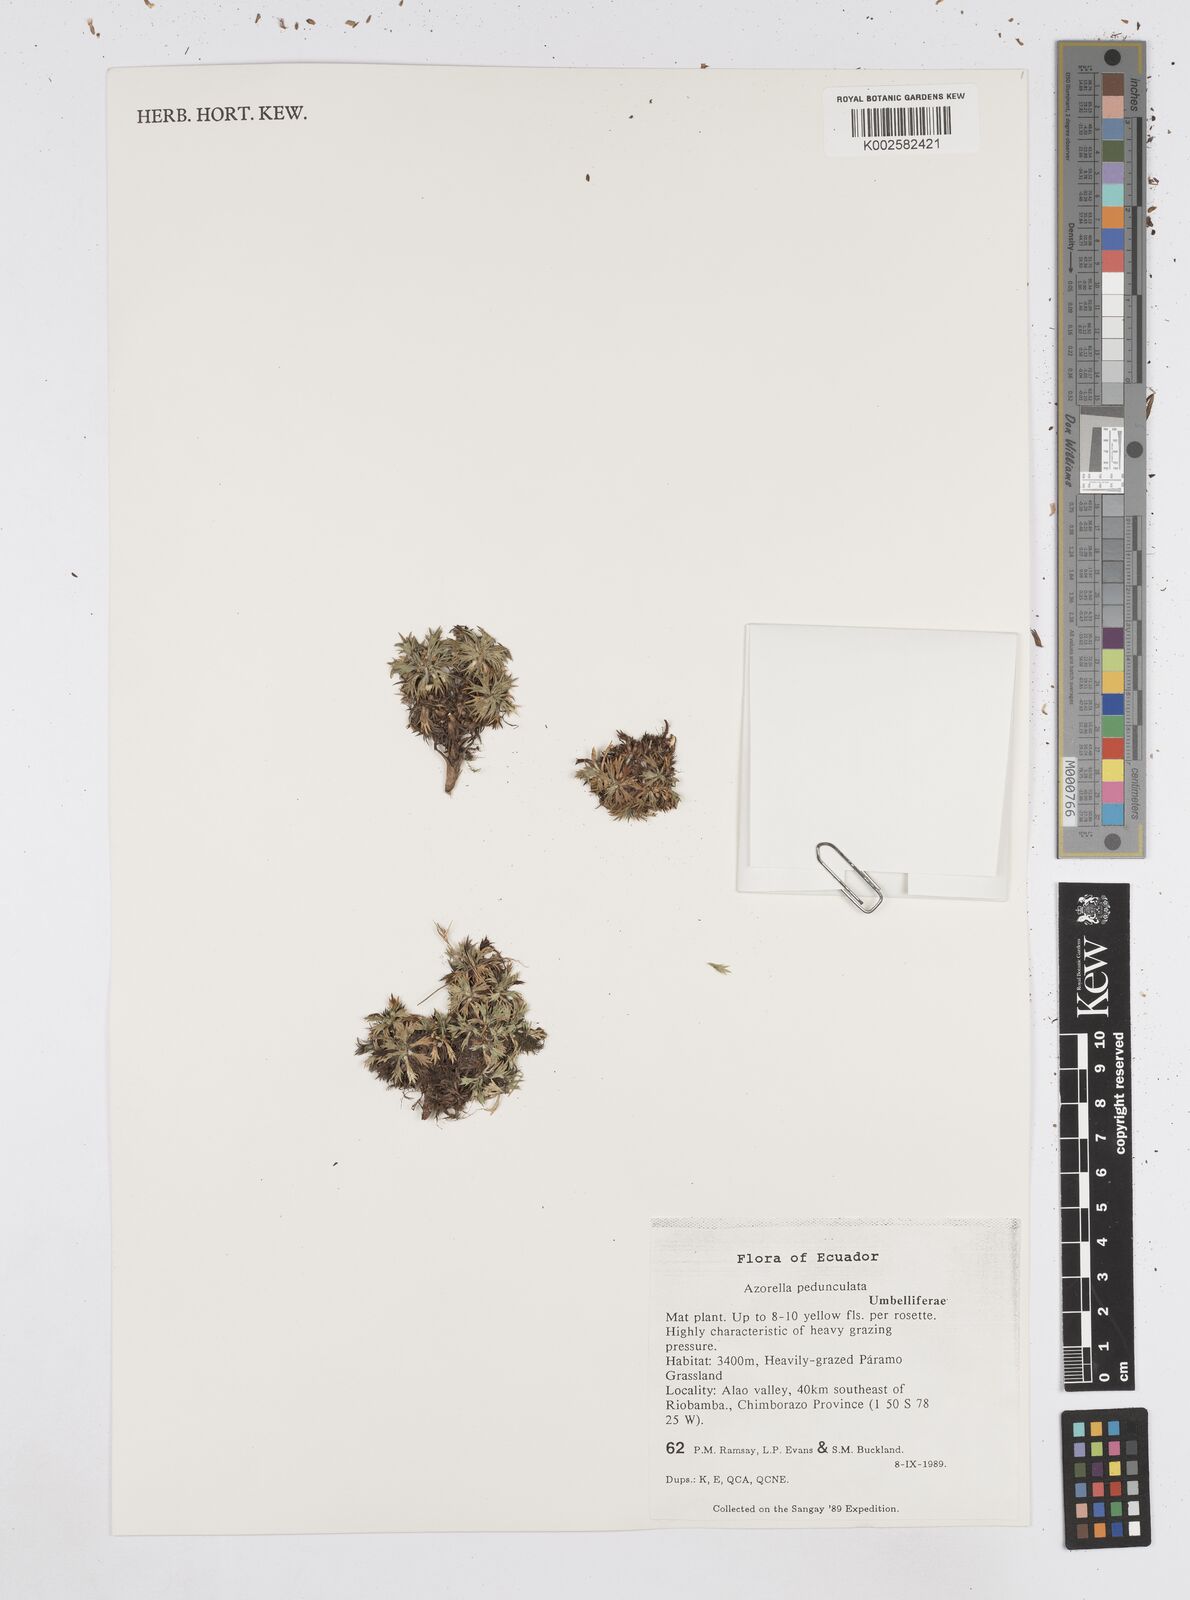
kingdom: Plantae
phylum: Tracheophyta
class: Magnoliopsida
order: Apiales
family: Apiaceae
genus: Azorella
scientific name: Azorella pedunculata
